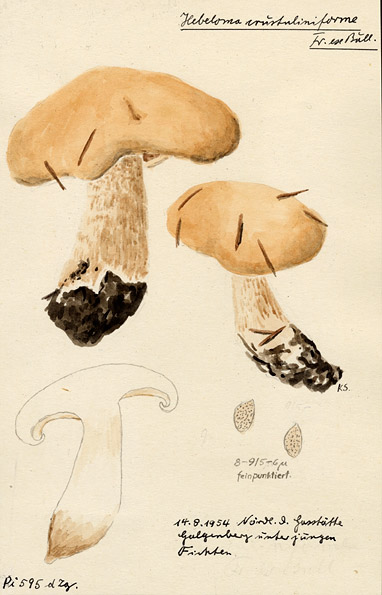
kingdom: Fungi
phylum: Basidiomycota
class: Agaricomycetes
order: Agaricales
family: Hymenogastraceae
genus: Hebeloma
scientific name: Hebeloma crustuliniforme
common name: Poison pie
